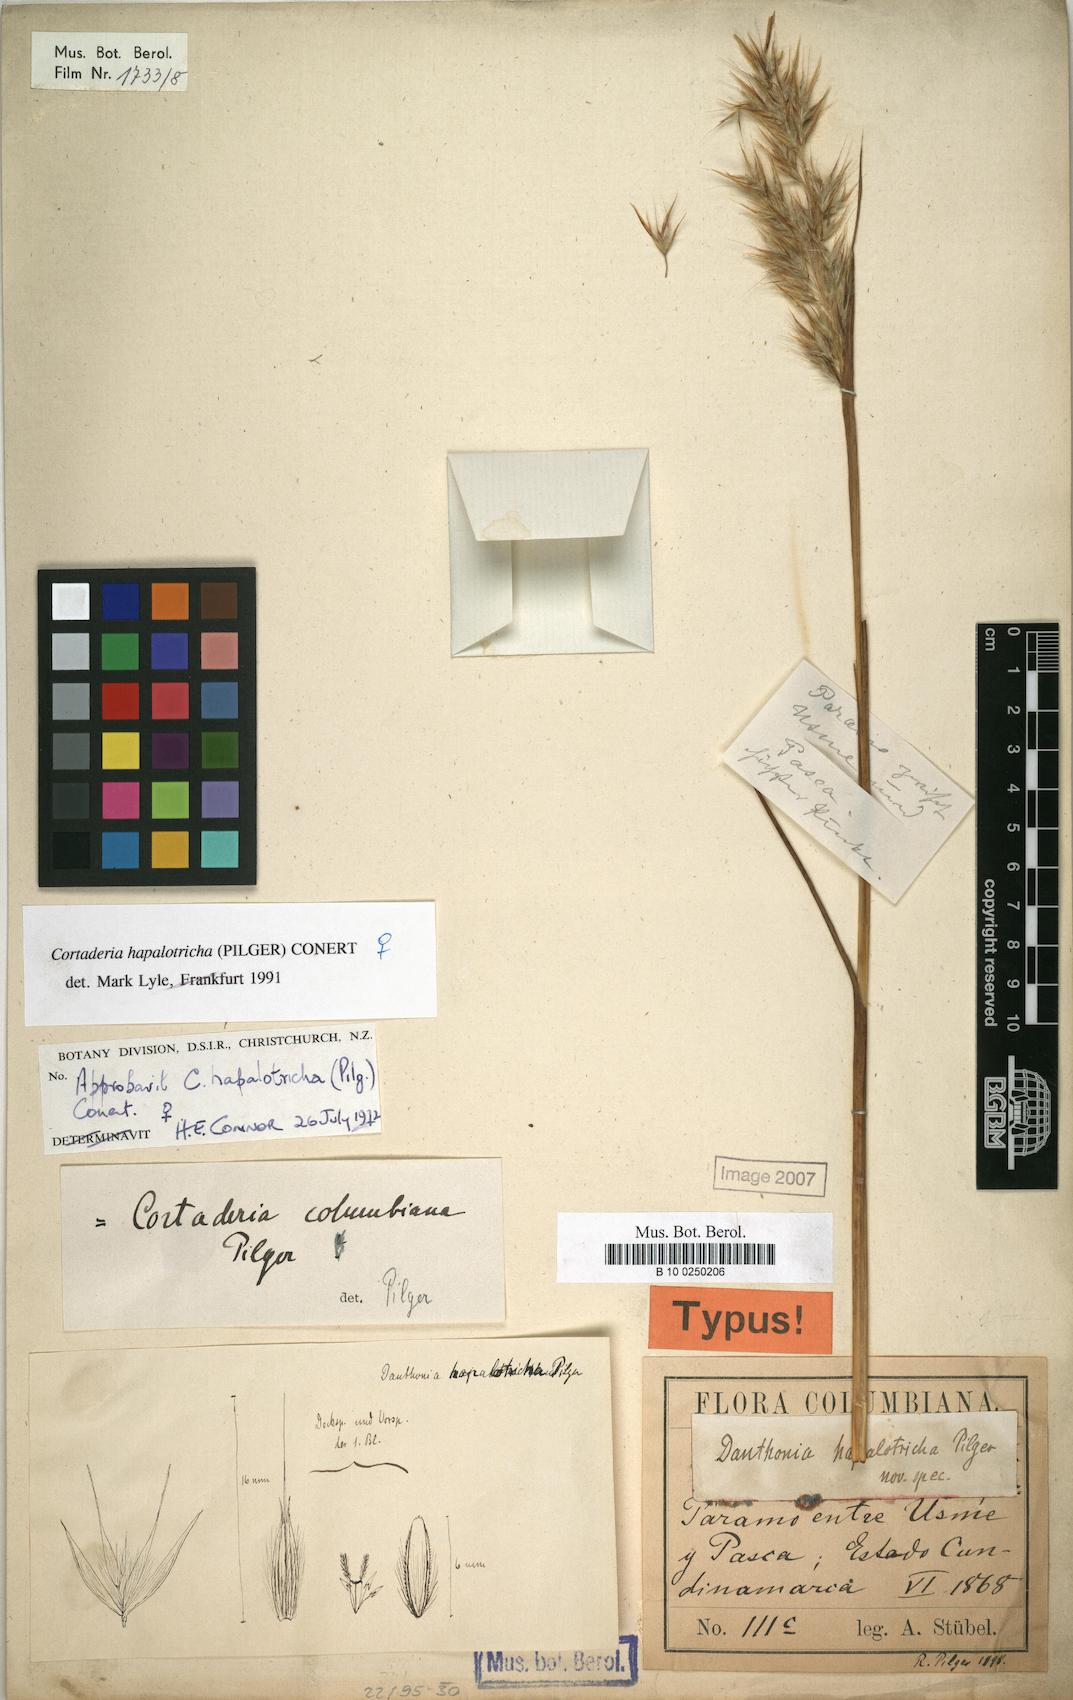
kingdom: Plantae
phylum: Tracheophyta
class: Liliopsida
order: Poales
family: Poaceae
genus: Cortaderia
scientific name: Cortaderia hapalotricha
